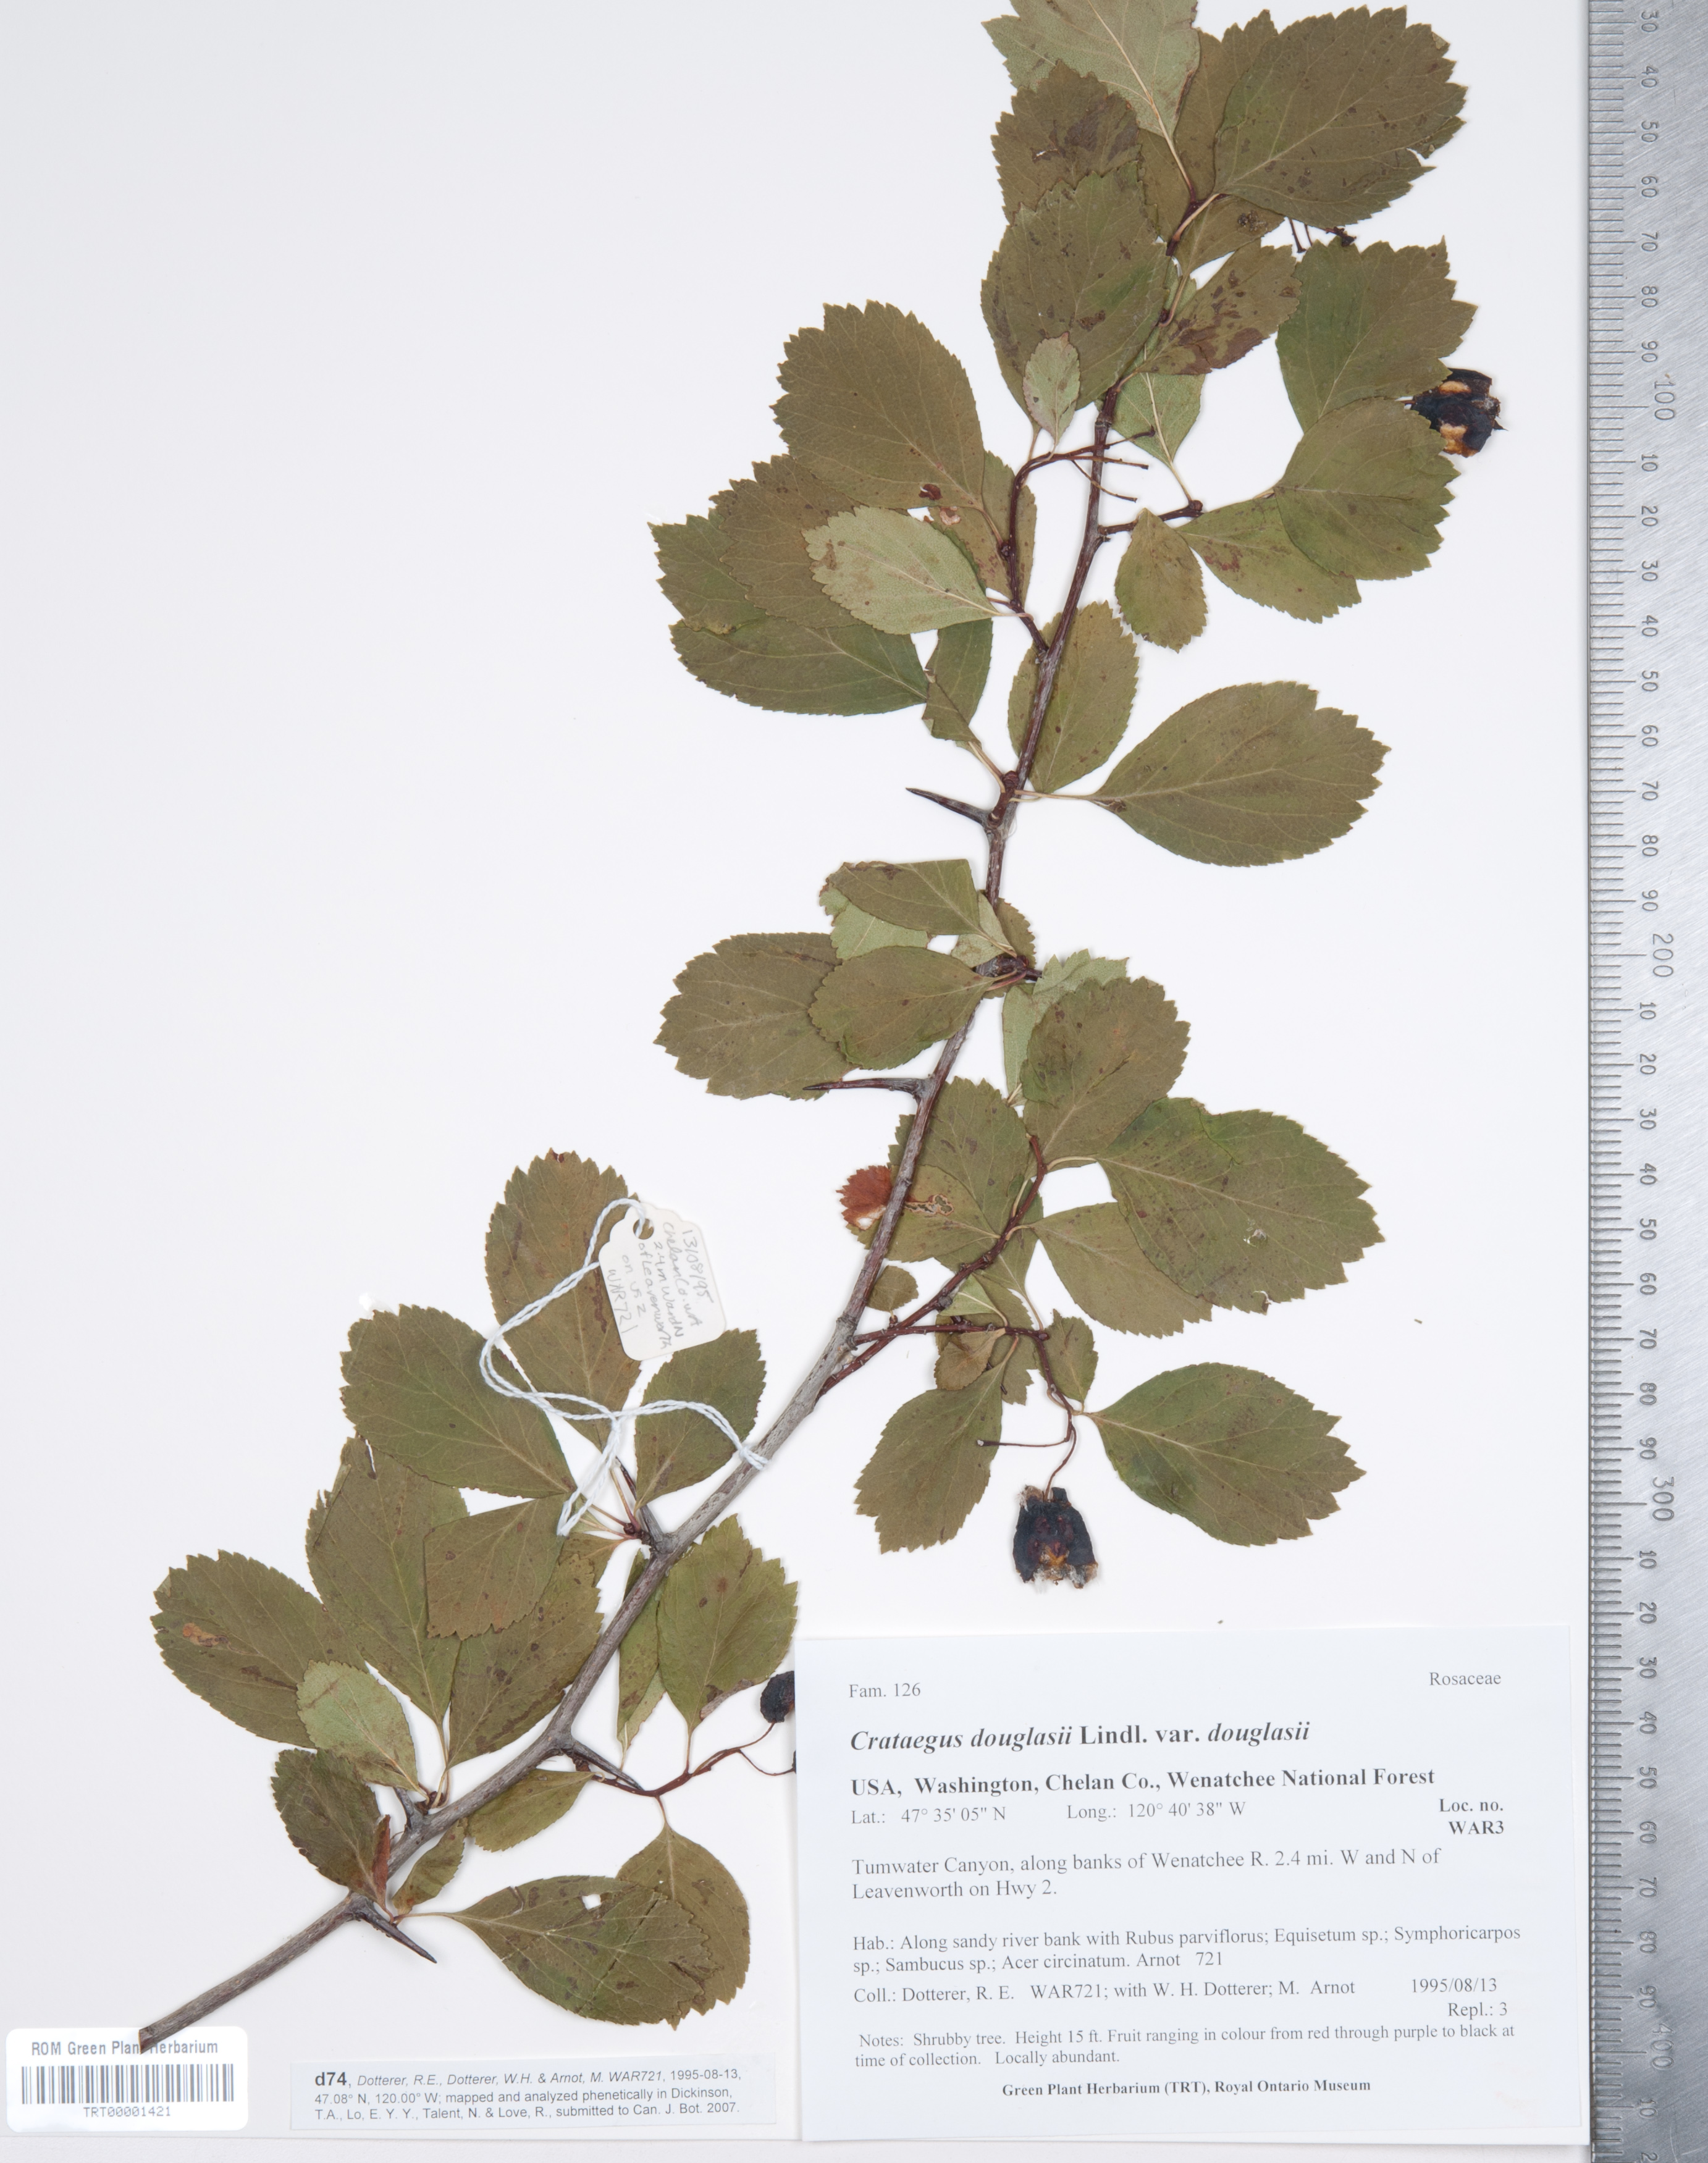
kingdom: Plantae
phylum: Tracheophyta
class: Magnoliopsida
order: Rosales
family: Rosaceae
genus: Crataegus
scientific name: Crataegus douglasii
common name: Black hawthorn
